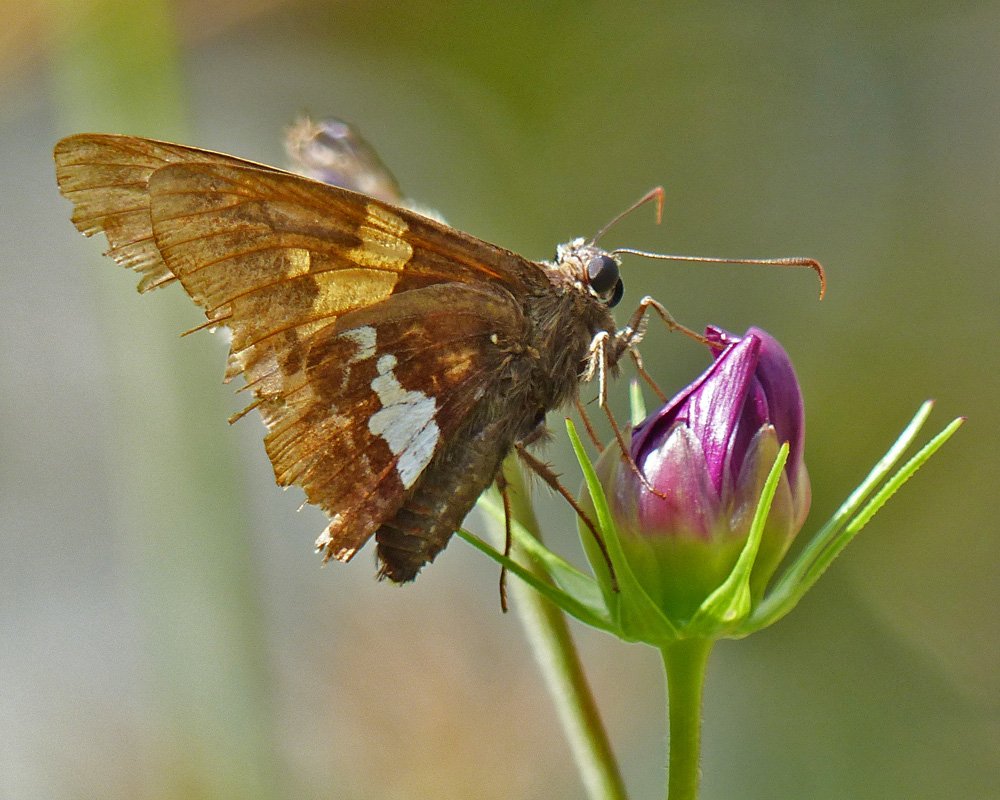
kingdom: Animalia
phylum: Arthropoda
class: Insecta
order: Lepidoptera
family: Hesperiidae
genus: Epargyreus
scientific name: Epargyreus clarus
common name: Silver-spotted Skipper
